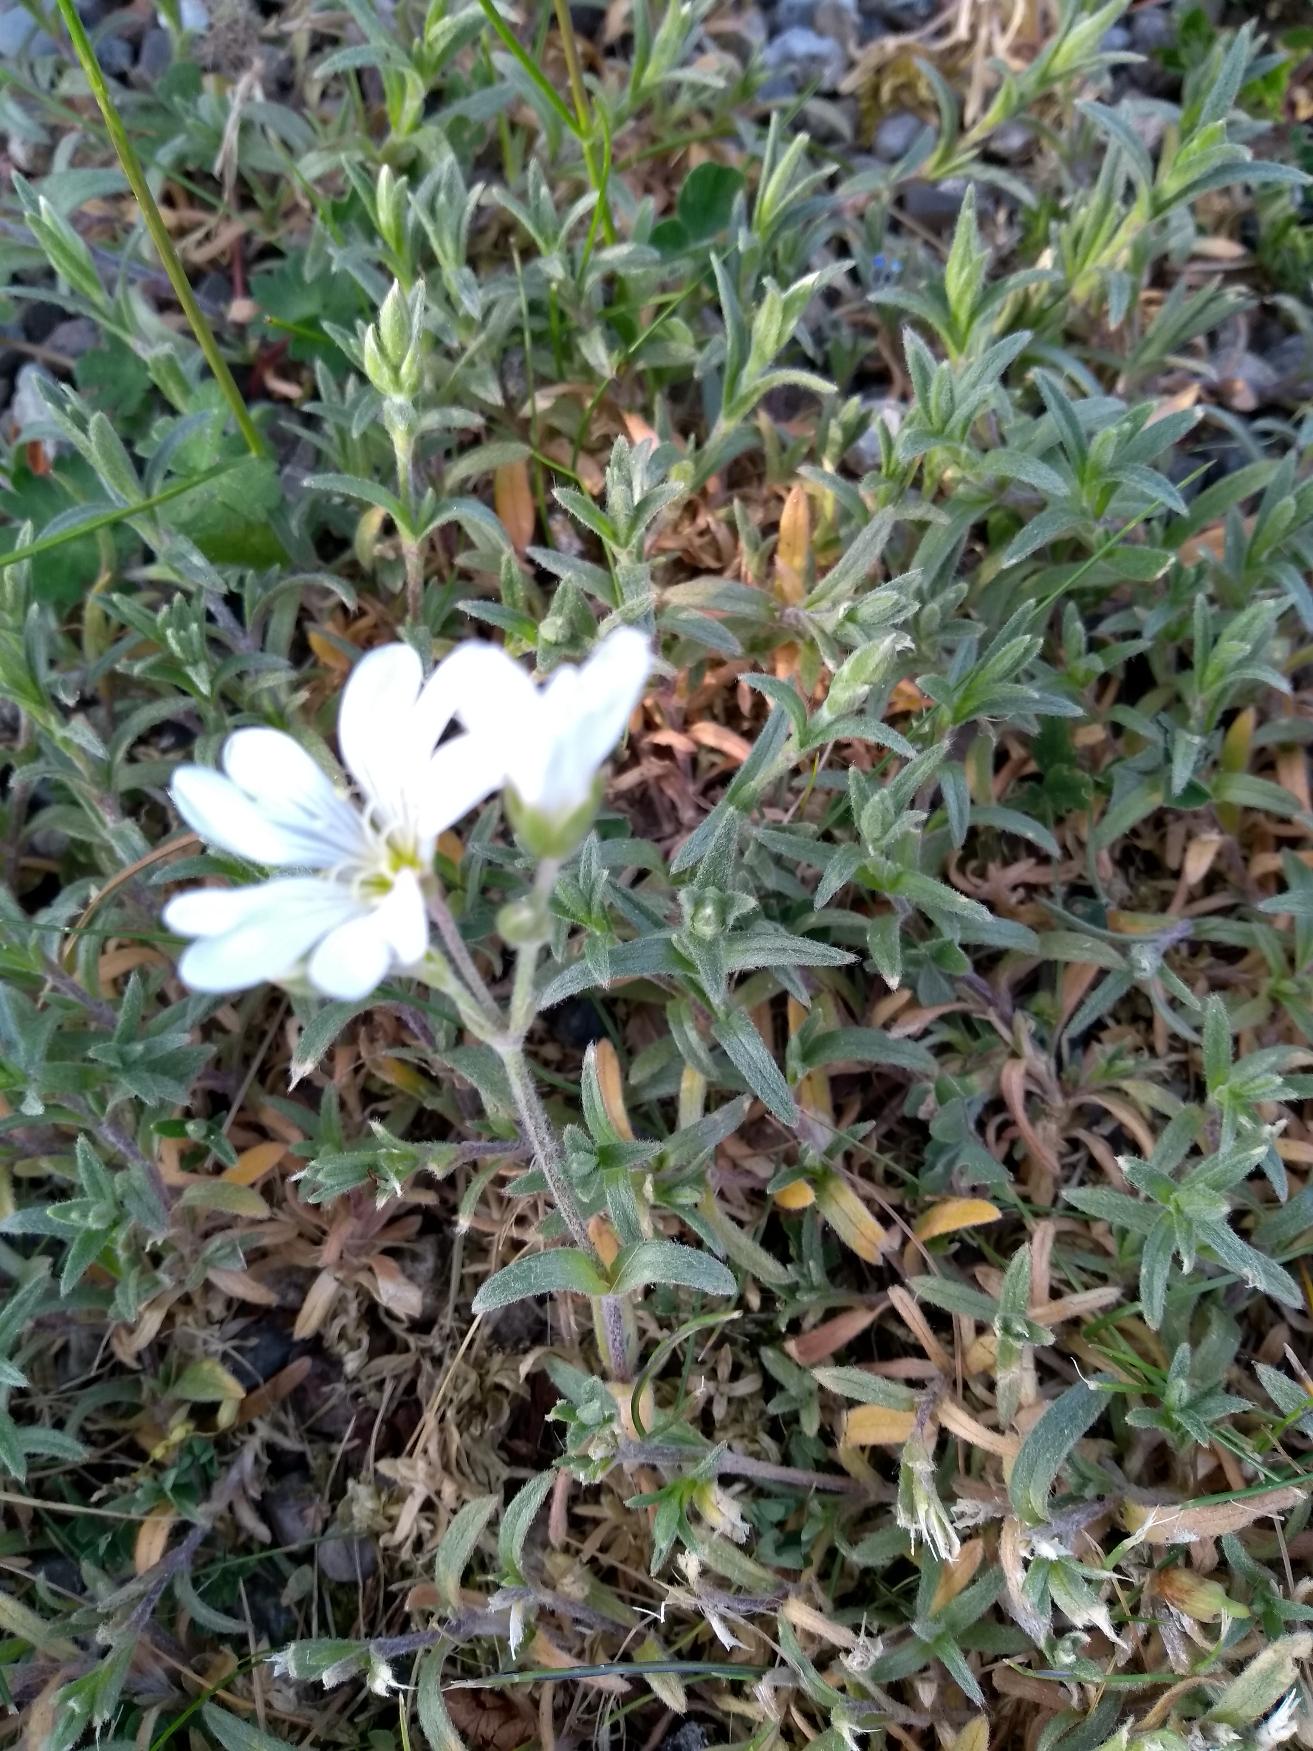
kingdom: Plantae
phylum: Tracheophyta
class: Magnoliopsida
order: Caryophyllales
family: Caryophyllaceae
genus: Cerastium
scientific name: Cerastium tomentosum
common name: Filtet hønsetarm
